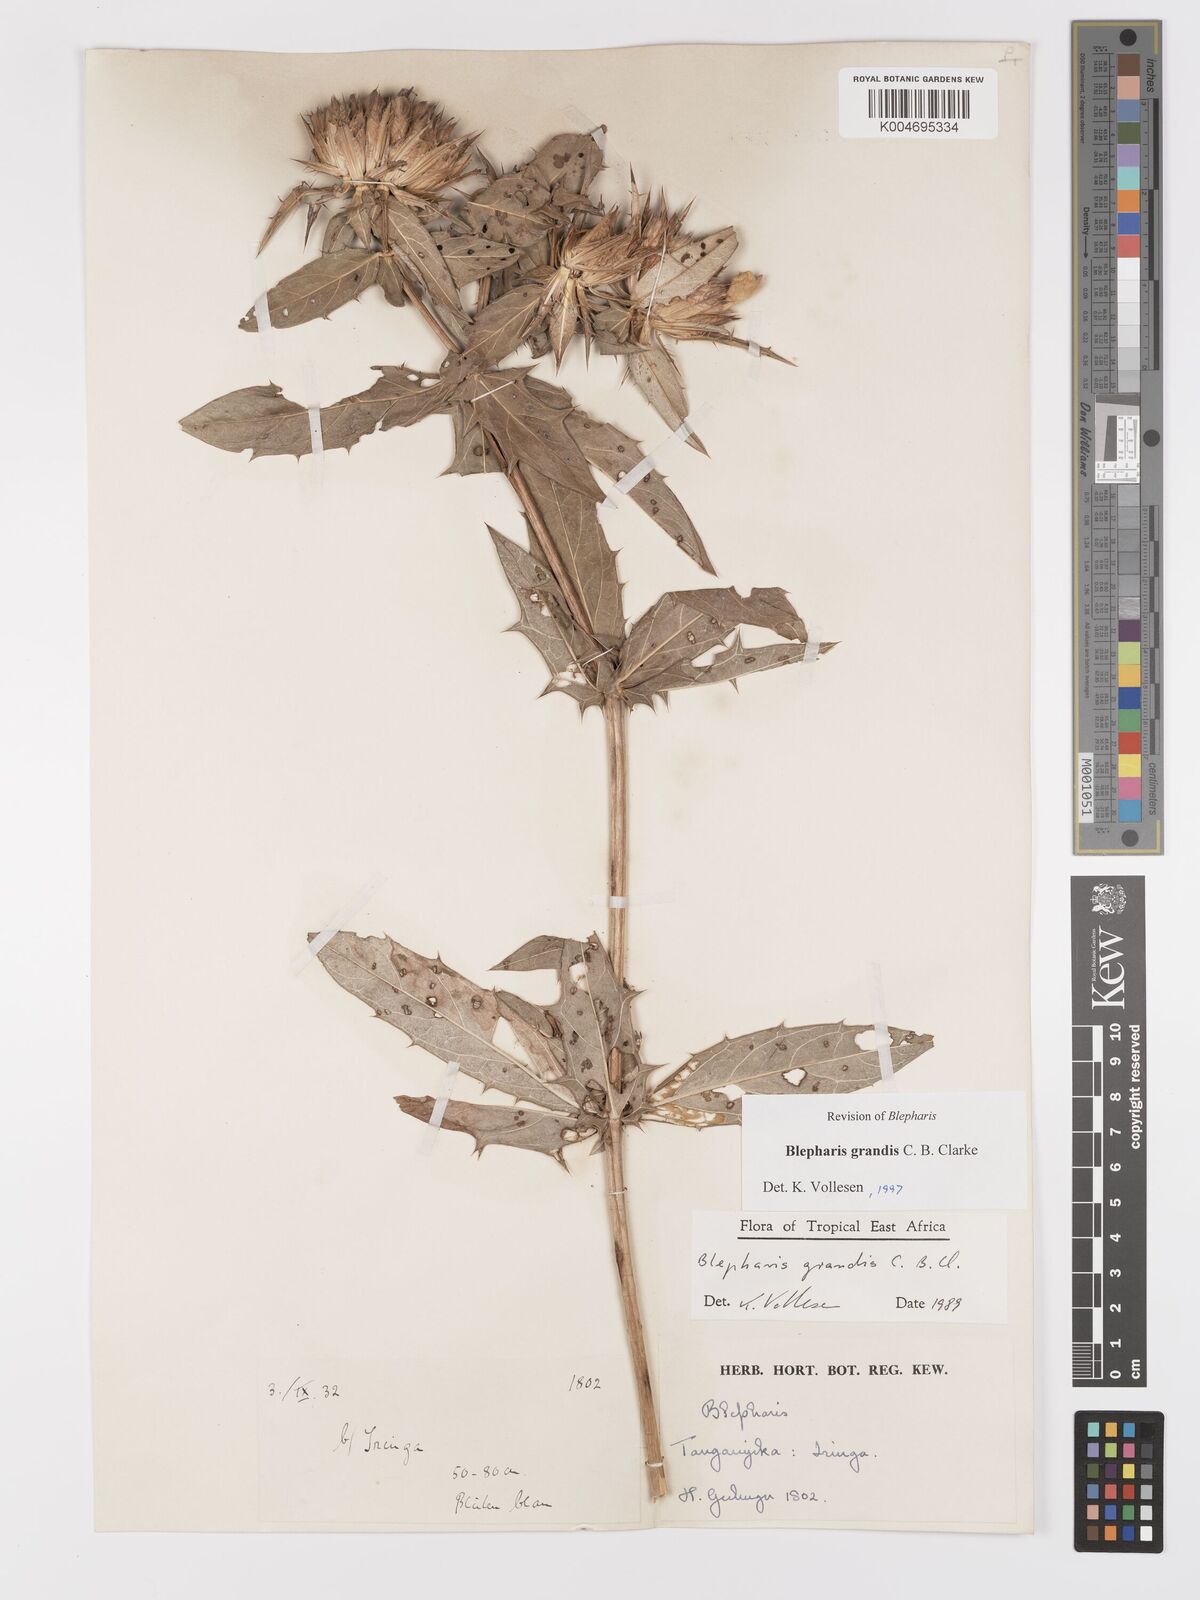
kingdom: Plantae
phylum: Tracheophyta
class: Magnoliopsida
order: Lamiales
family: Acanthaceae
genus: Blepharis
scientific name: Blepharis grandis
